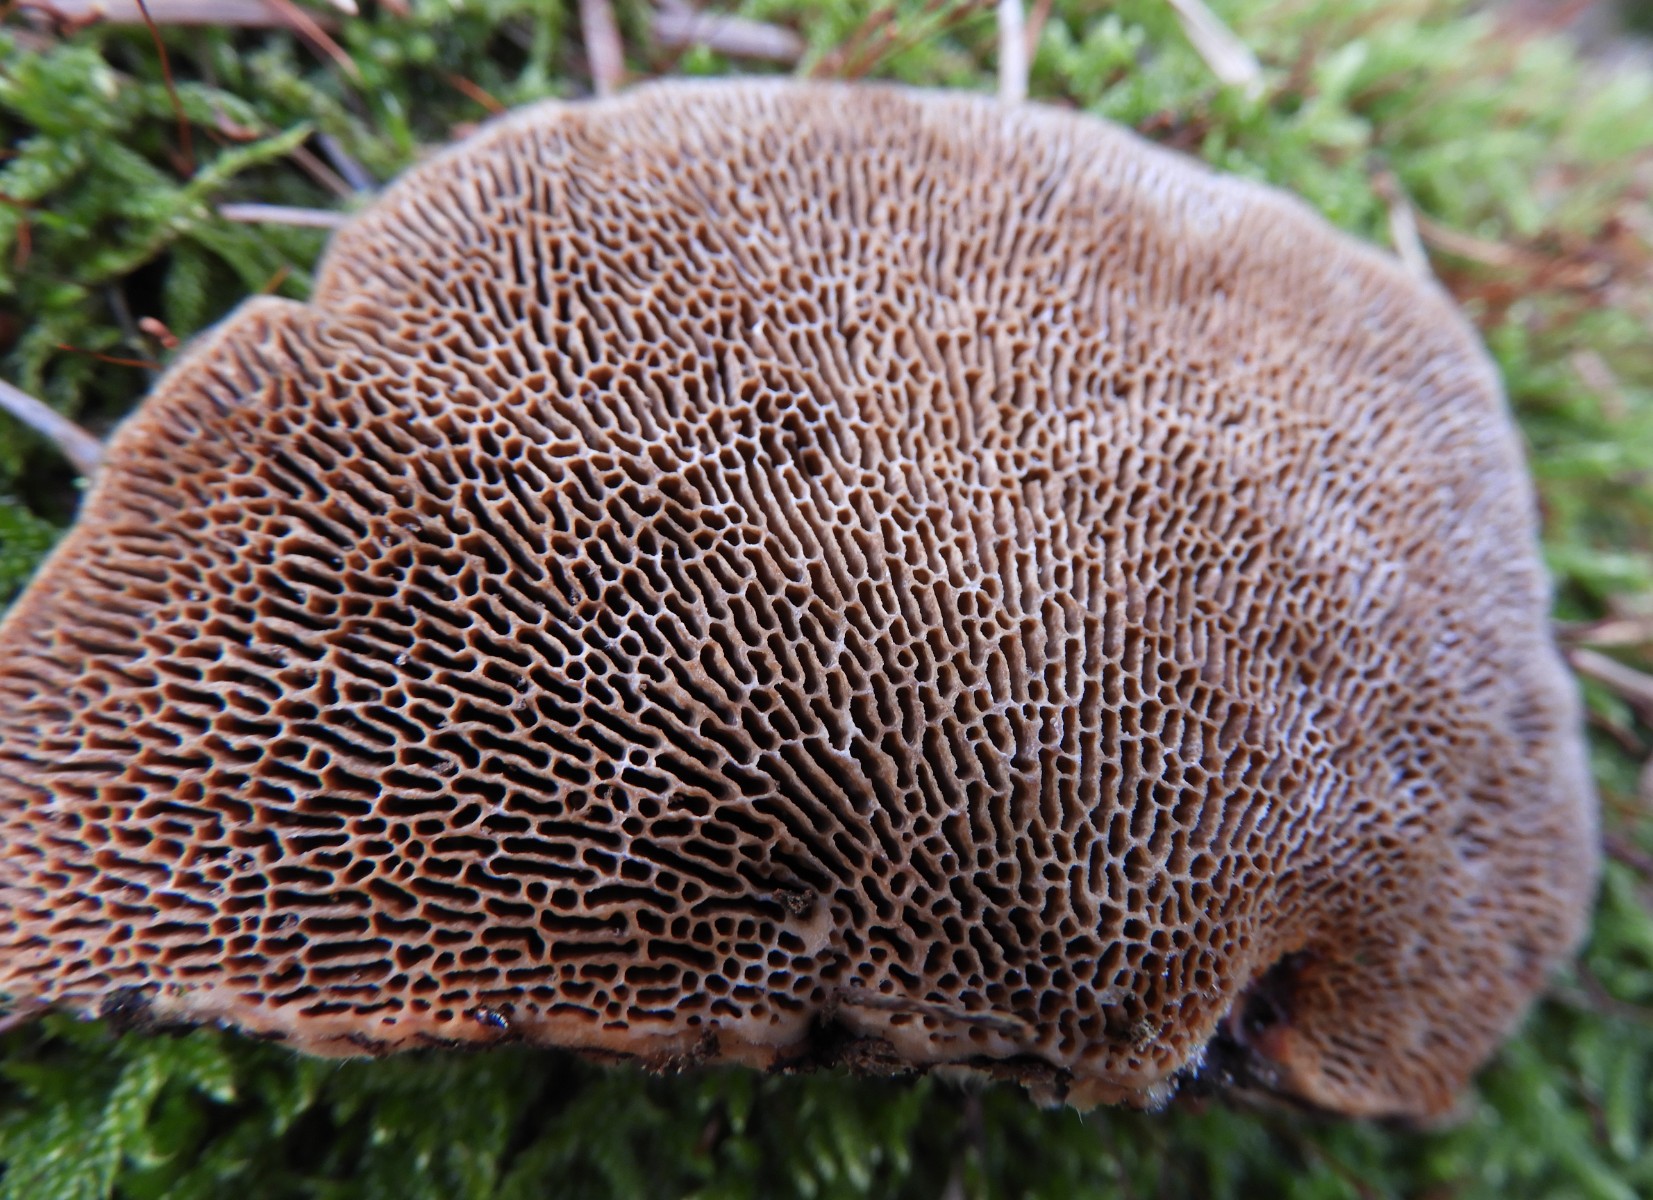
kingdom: Fungi
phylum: Basidiomycota
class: Agaricomycetes
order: Polyporales
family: Polyporaceae
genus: Daedaleopsis
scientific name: Daedaleopsis confragosa
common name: rødmende læderporesvamp
